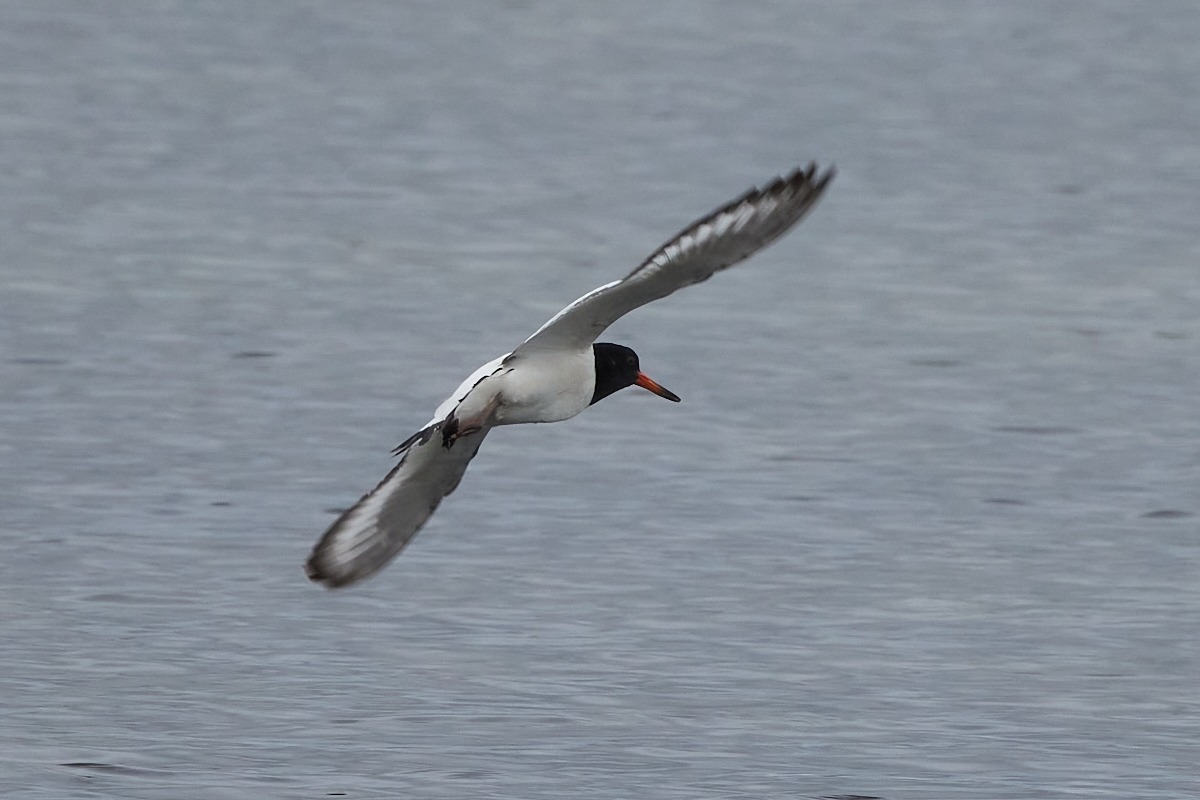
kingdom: Animalia
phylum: Chordata
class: Aves
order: Charadriiformes
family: Haematopodidae
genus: Haematopus
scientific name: Haematopus ostralegus
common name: Strandskade
